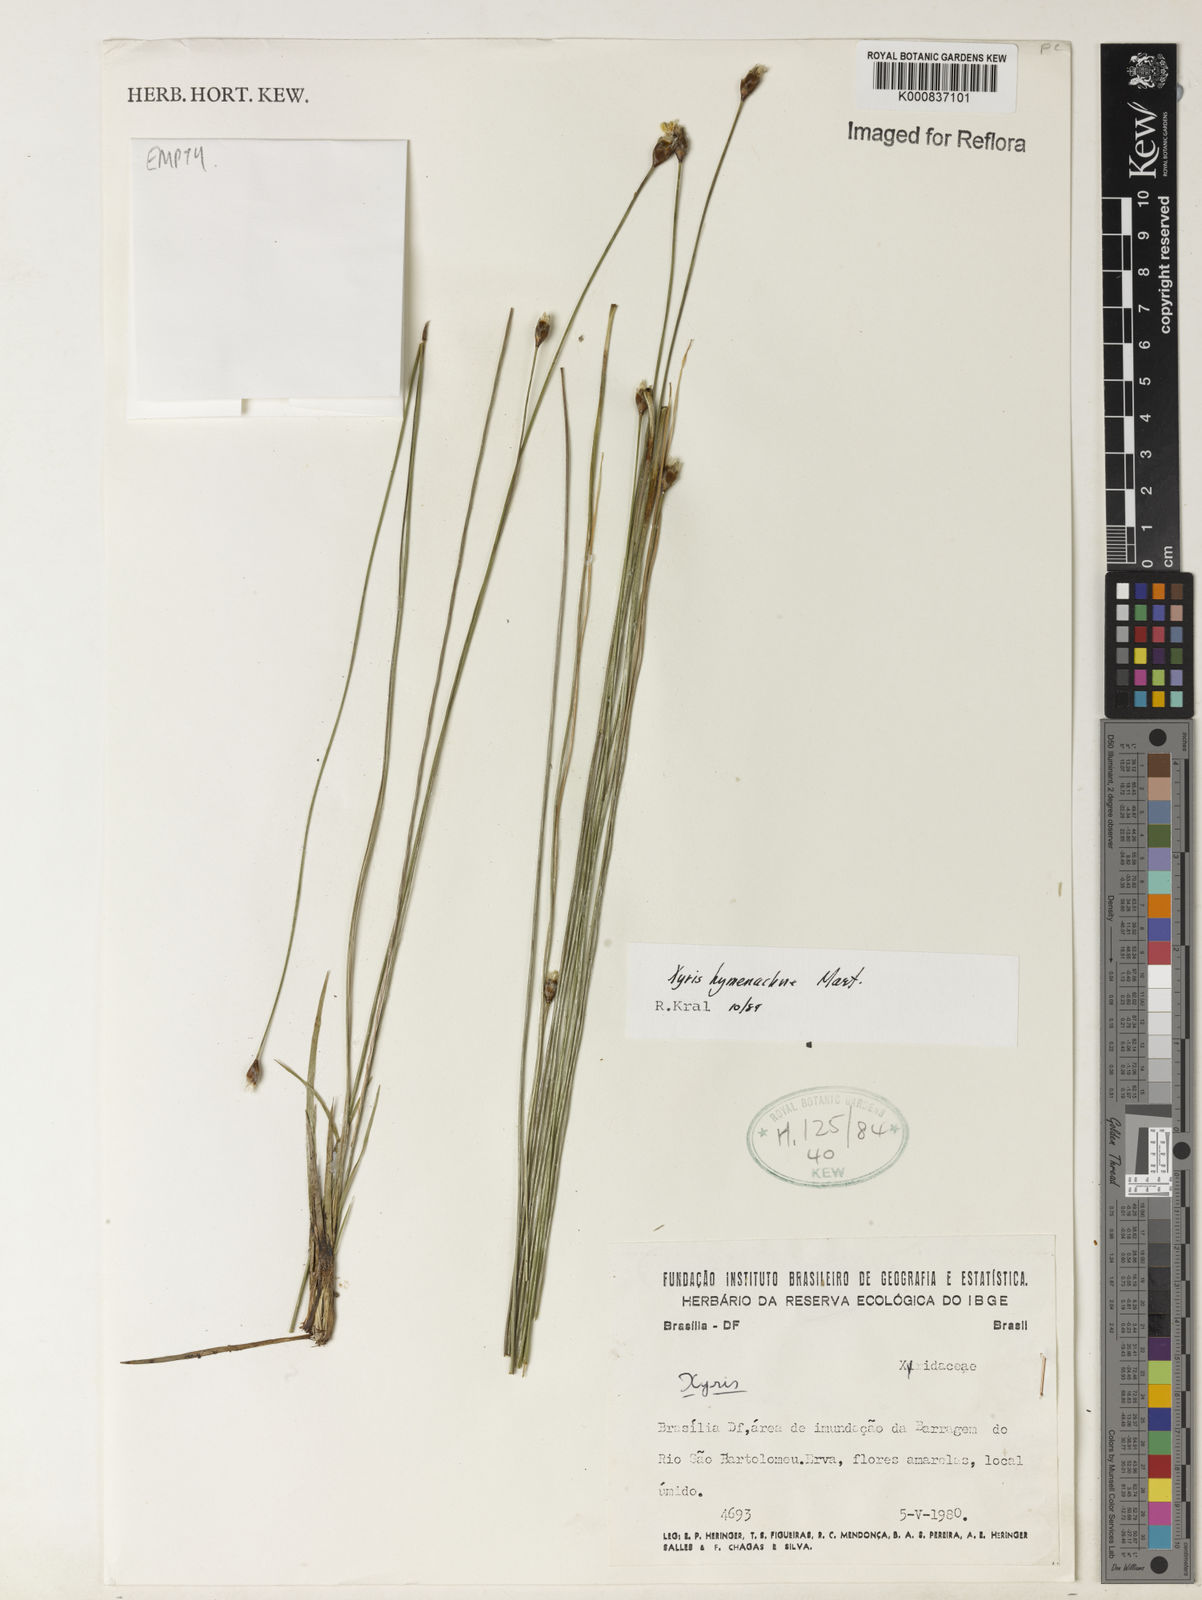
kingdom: Plantae
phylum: Tracheophyta
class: Liliopsida
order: Poales
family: Xyridaceae
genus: Xyris
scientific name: Xyris hymenachne
